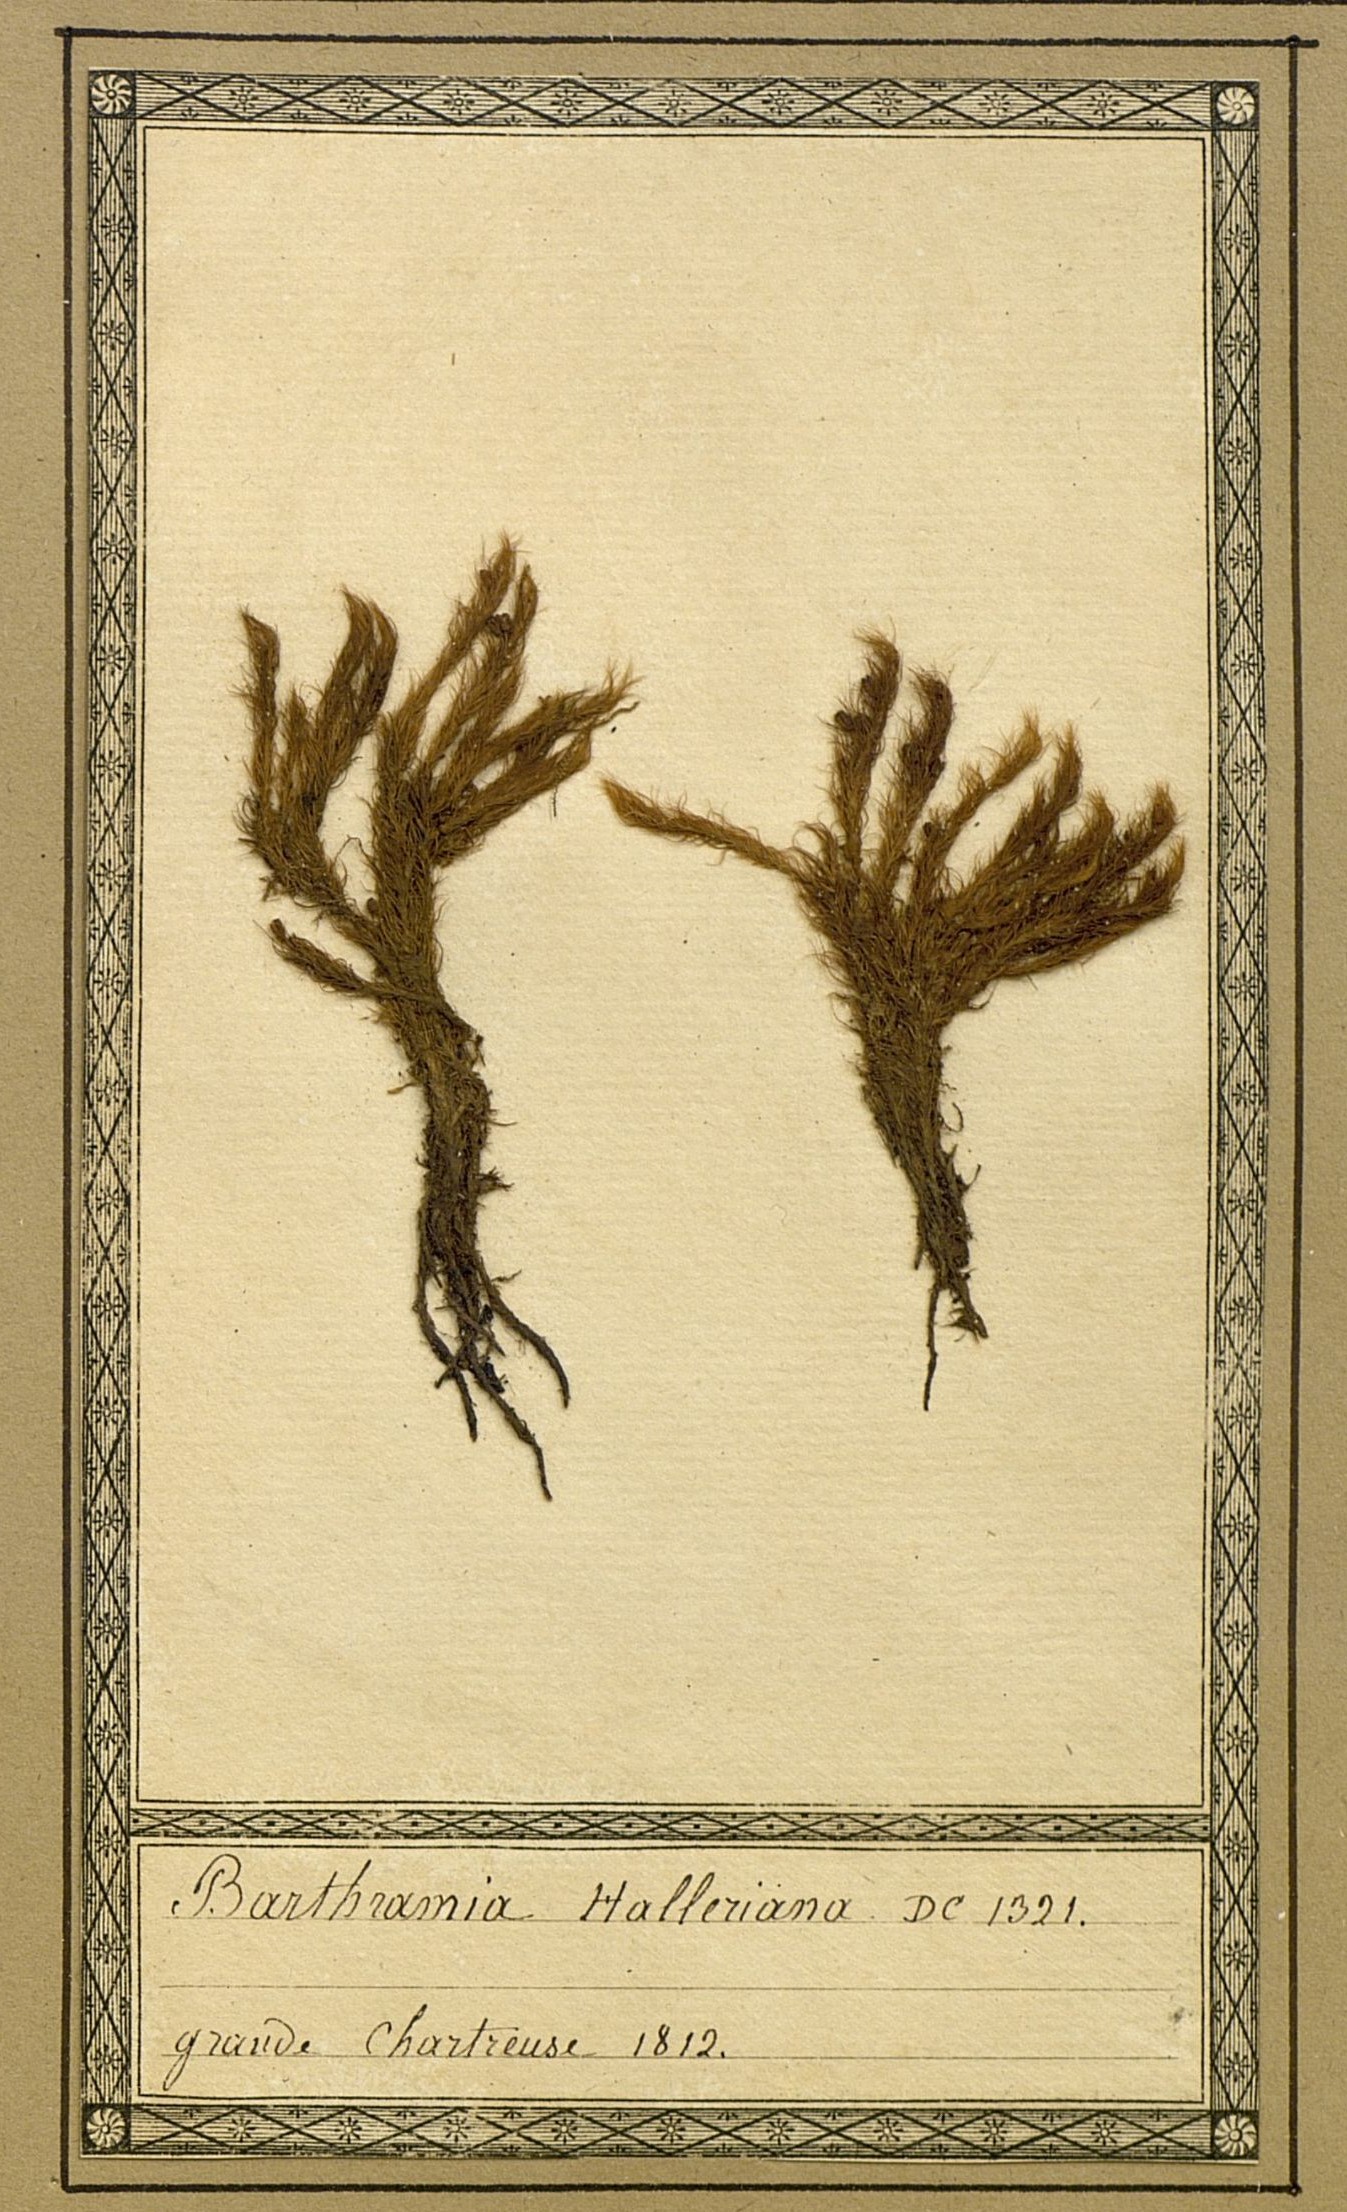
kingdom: Plantae
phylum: Bryophyta
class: Bryopsida
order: Bartramiales
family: Bartramiaceae
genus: Bartramia
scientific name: Bartramia halleriana
